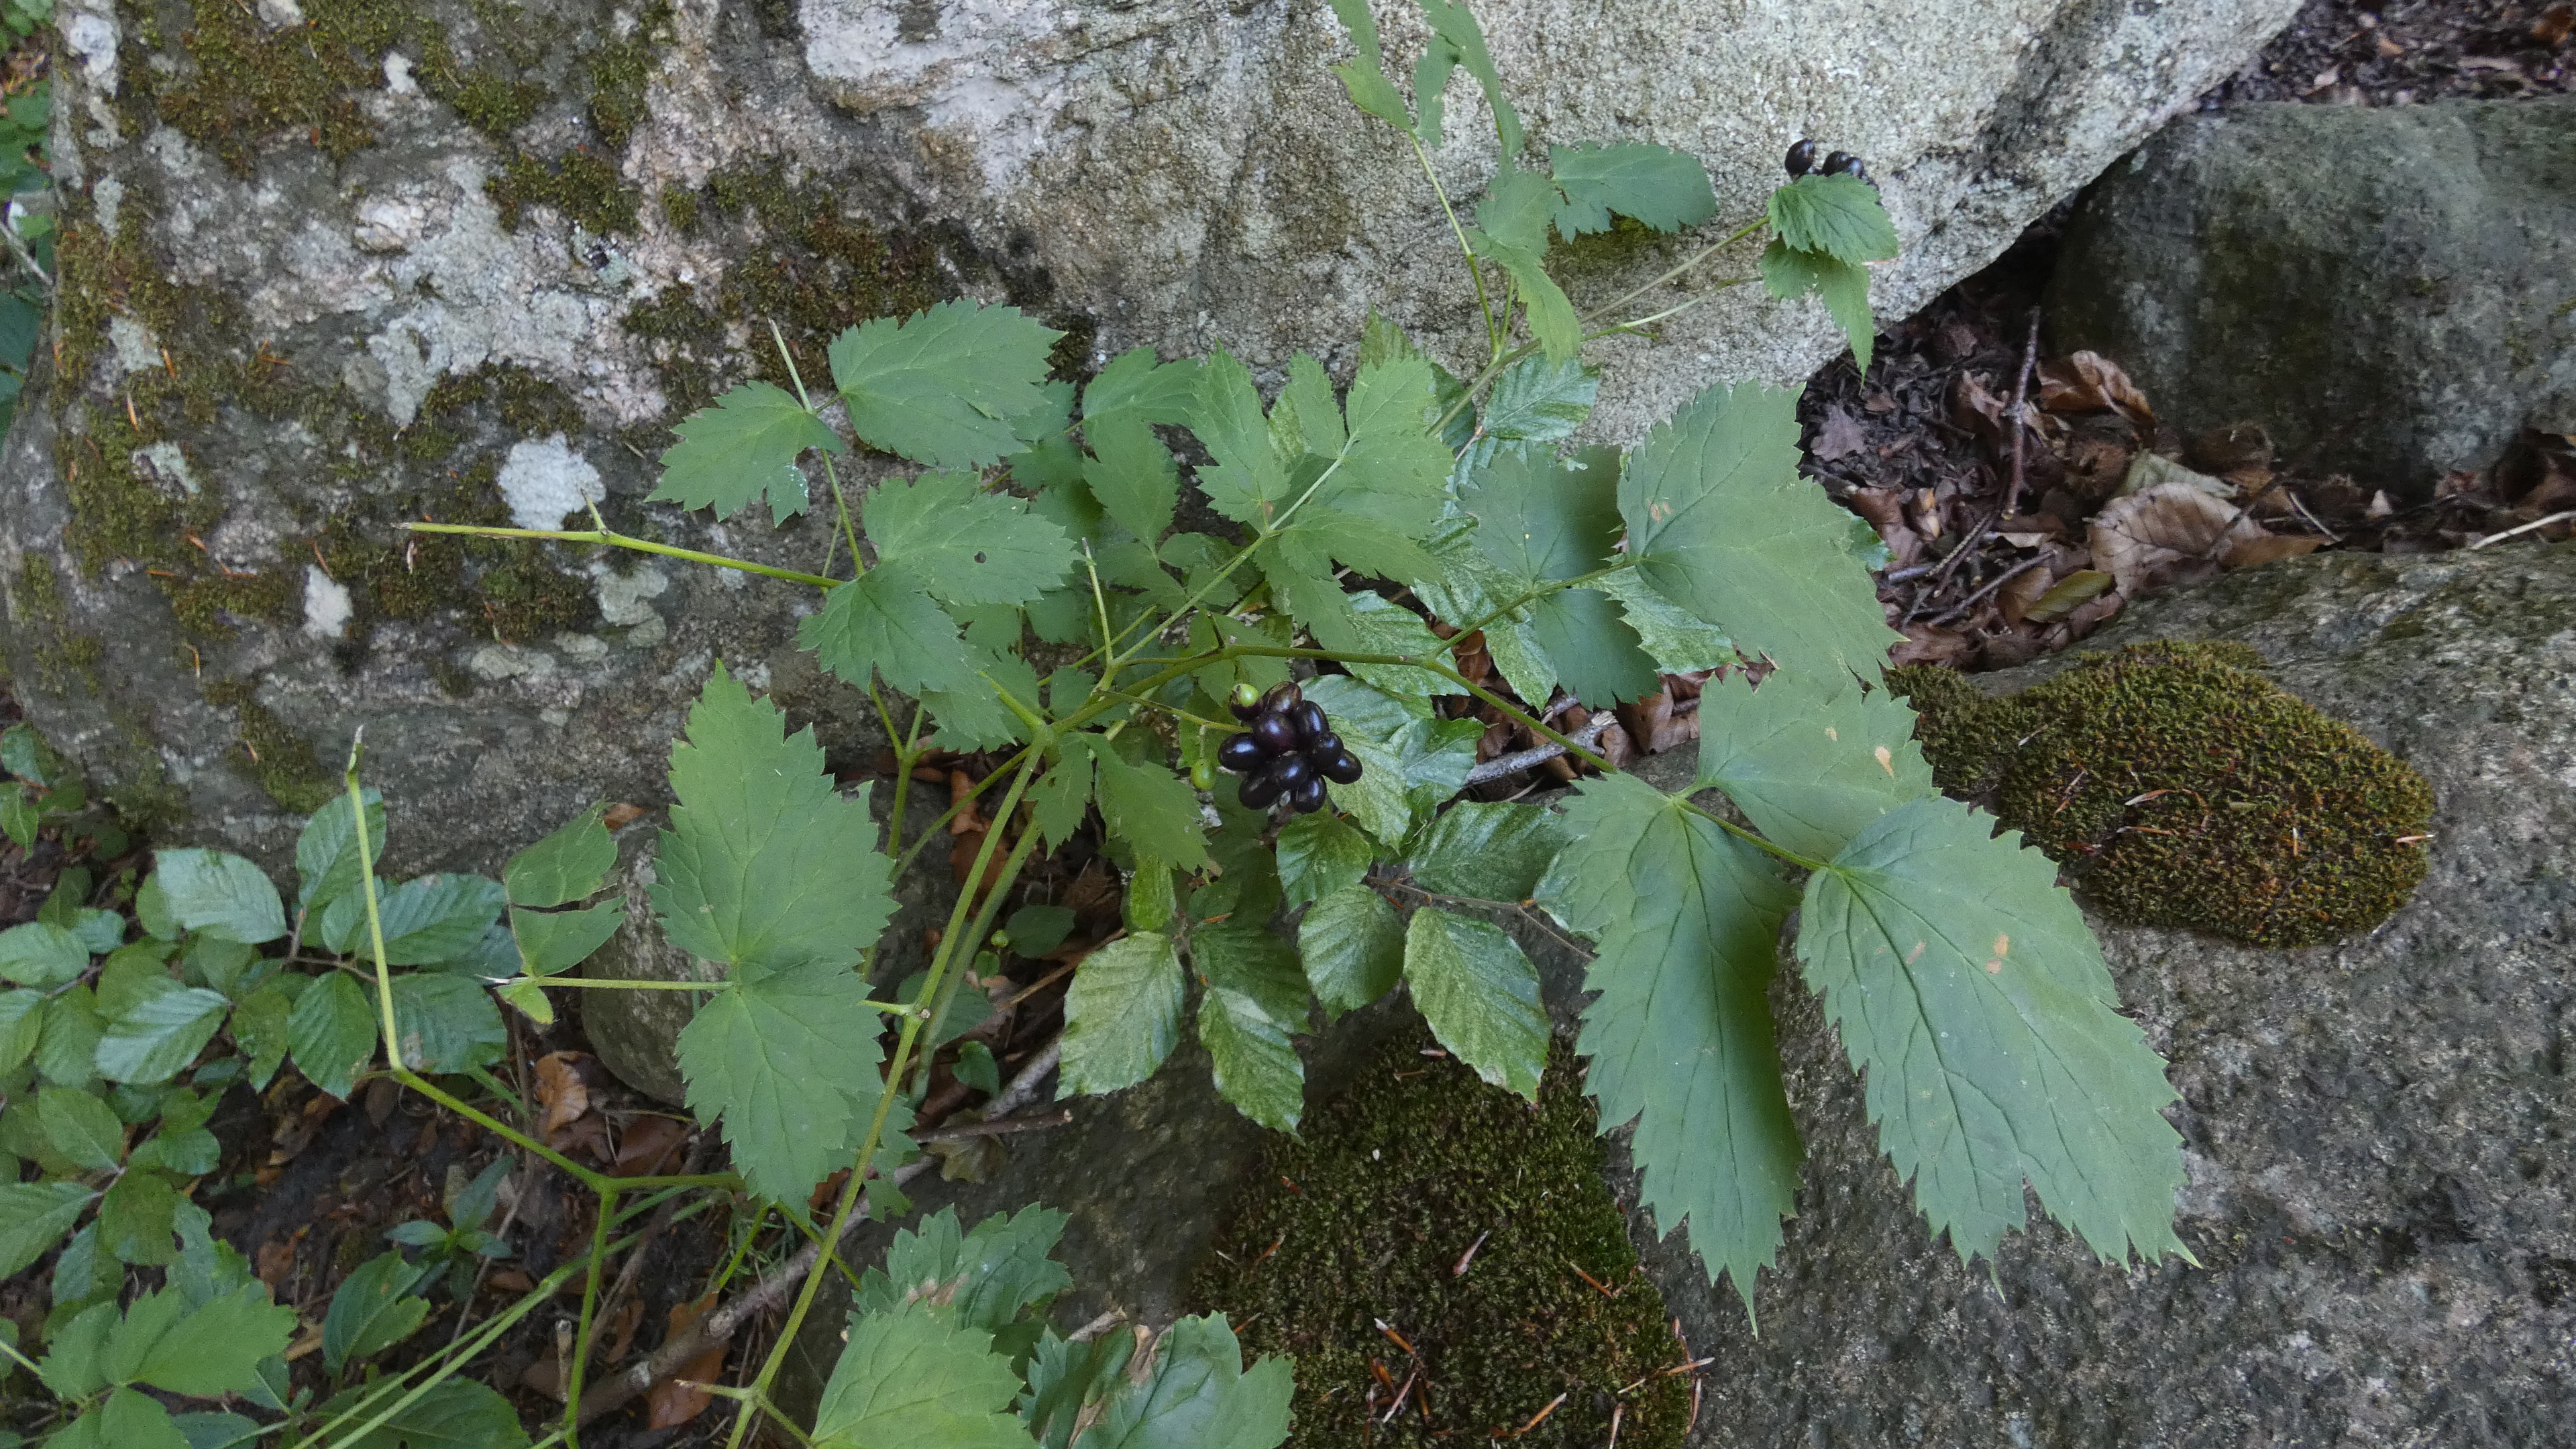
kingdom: Plantae
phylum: Tracheophyta
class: Magnoliopsida
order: Ranunculales
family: Ranunculaceae
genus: Actaea
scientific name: Actaea spicata
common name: Druemunke
